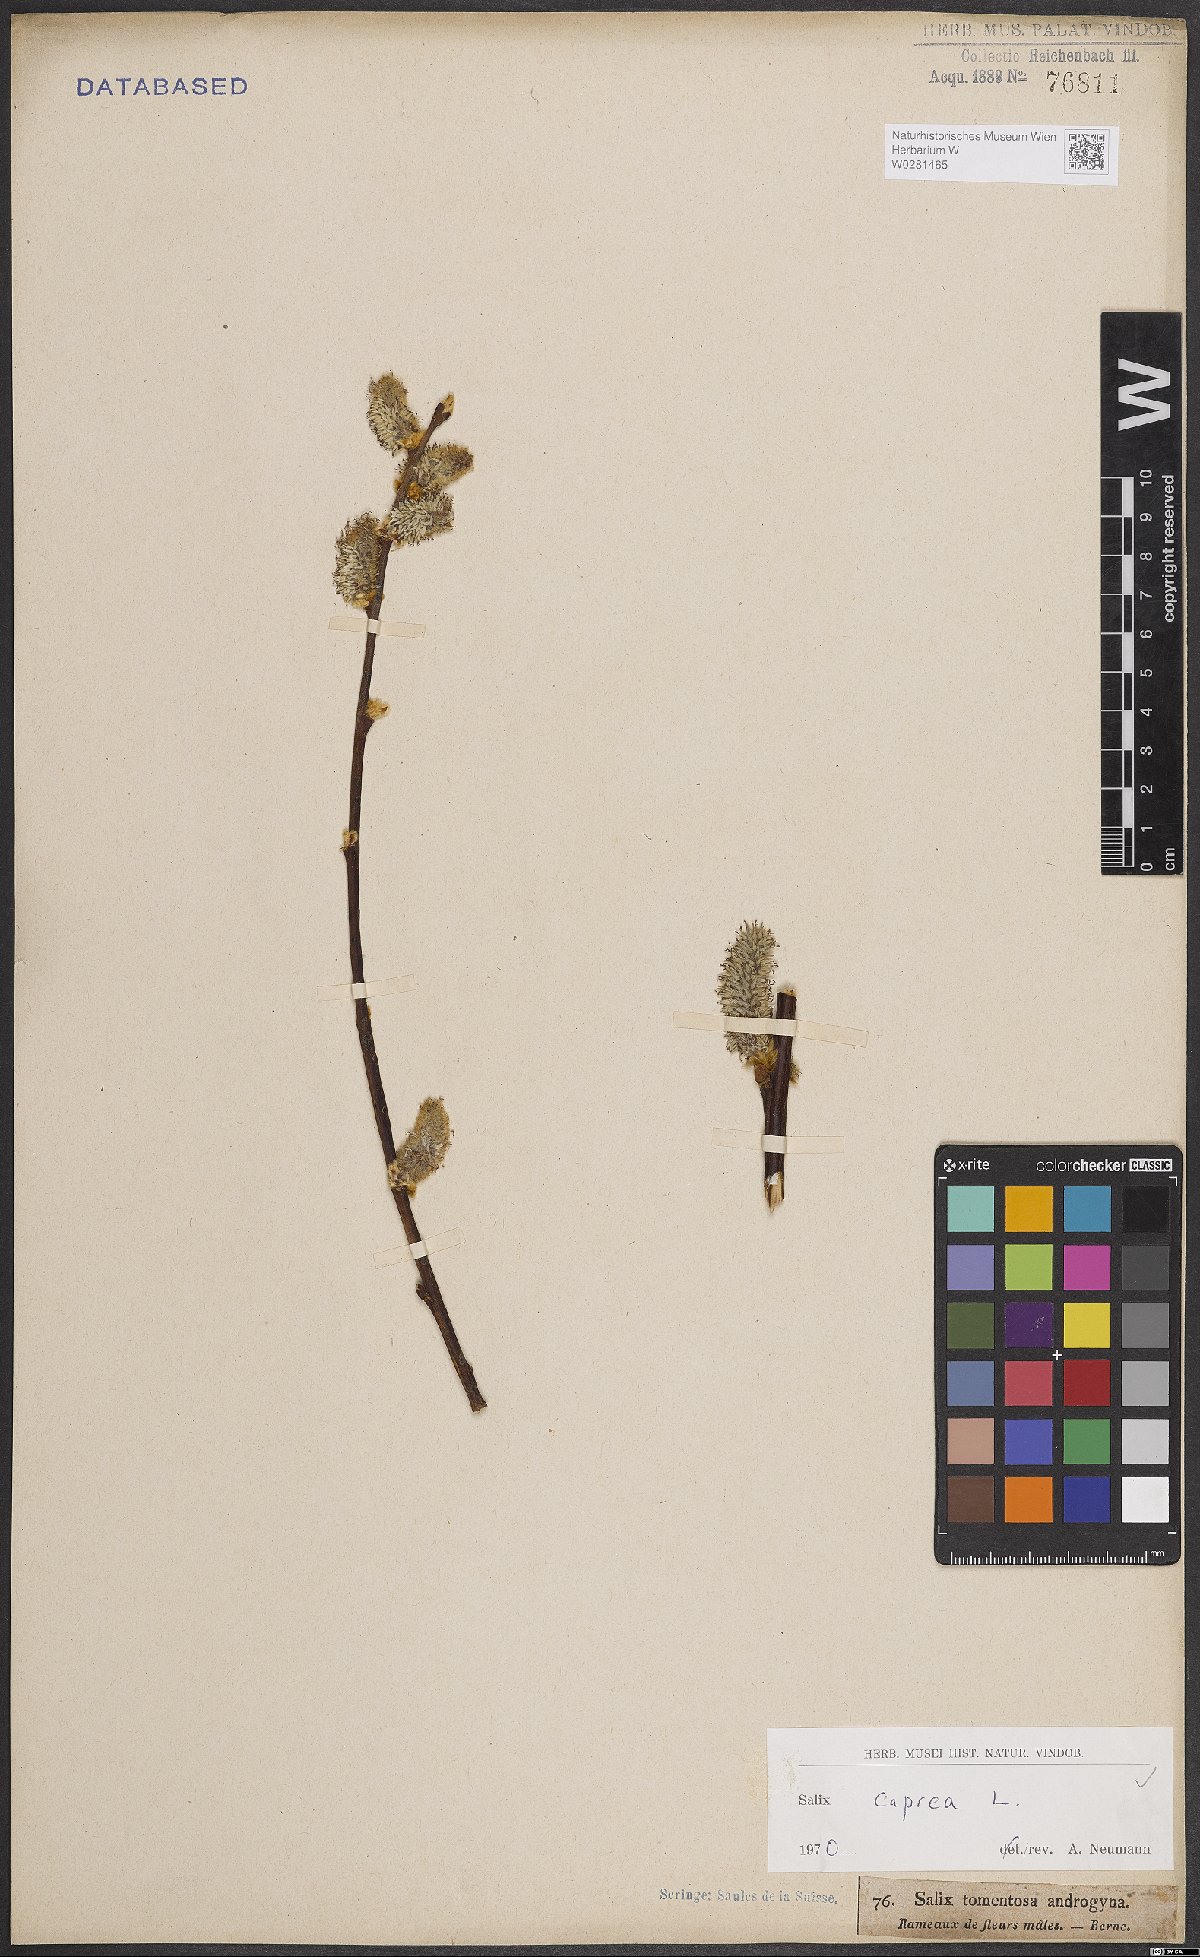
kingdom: Plantae
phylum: Tracheophyta
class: Magnoliopsida
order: Malpighiales
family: Salicaceae
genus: Salix
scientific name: Salix caprea
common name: Goat willow
